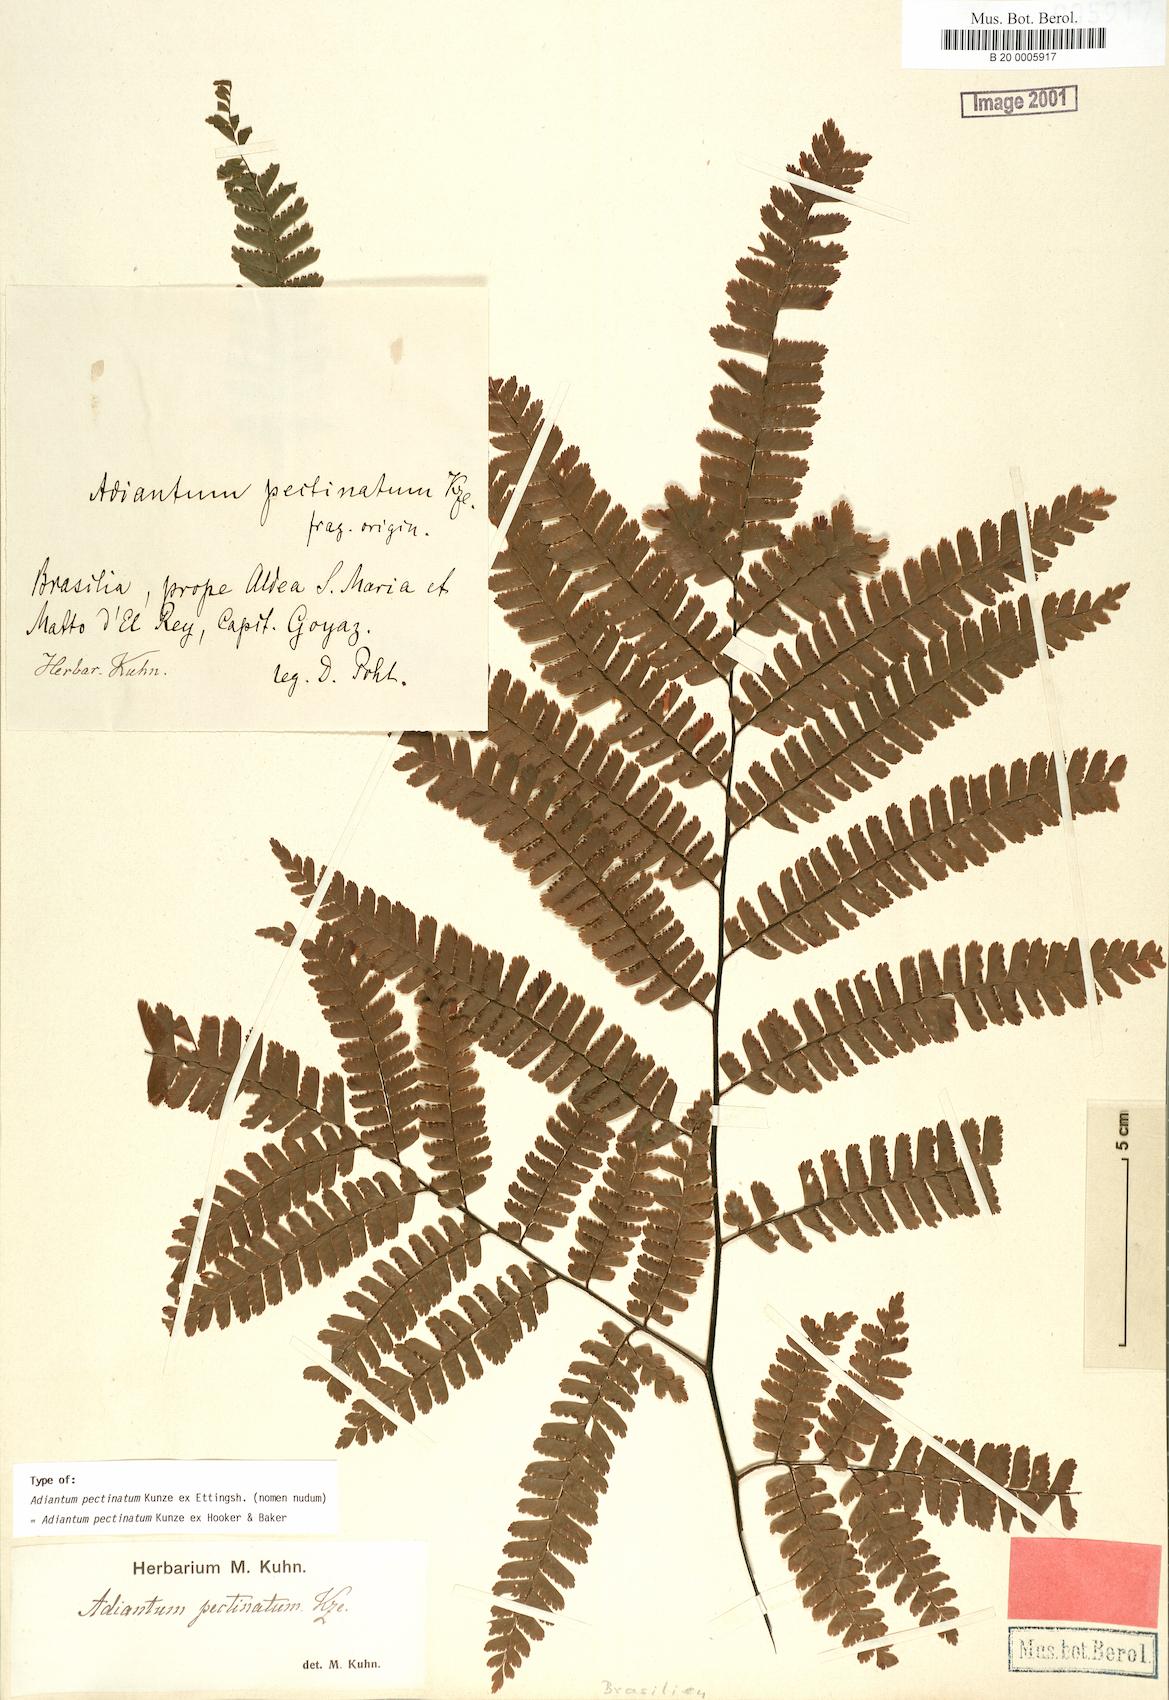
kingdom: Plantae
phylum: Tracheophyta
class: Polypodiopsida
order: Polypodiales
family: Pteridaceae
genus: Adiantum
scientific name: Adiantum pectinatum
